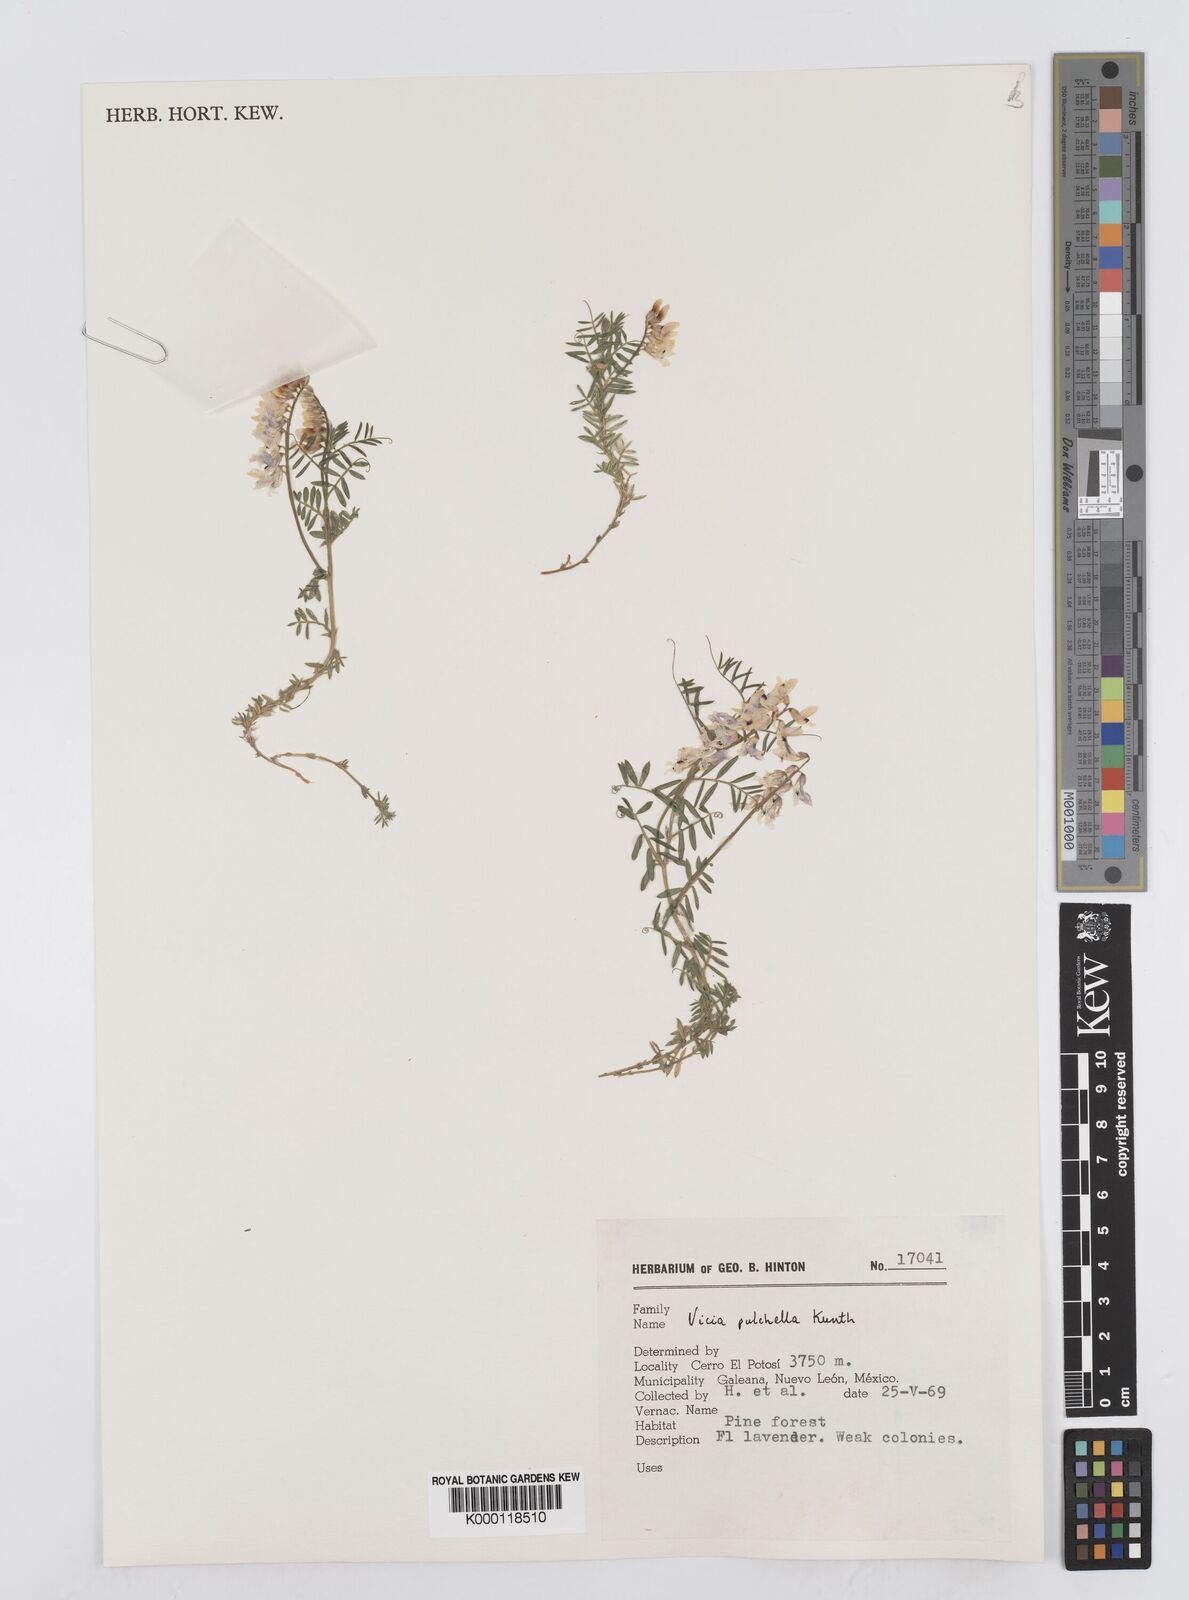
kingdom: Plantae
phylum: Tracheophyta
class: Magnoliopsida
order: Fabales
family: Fabaceae
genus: Vicia
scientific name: Vicia pulchella
